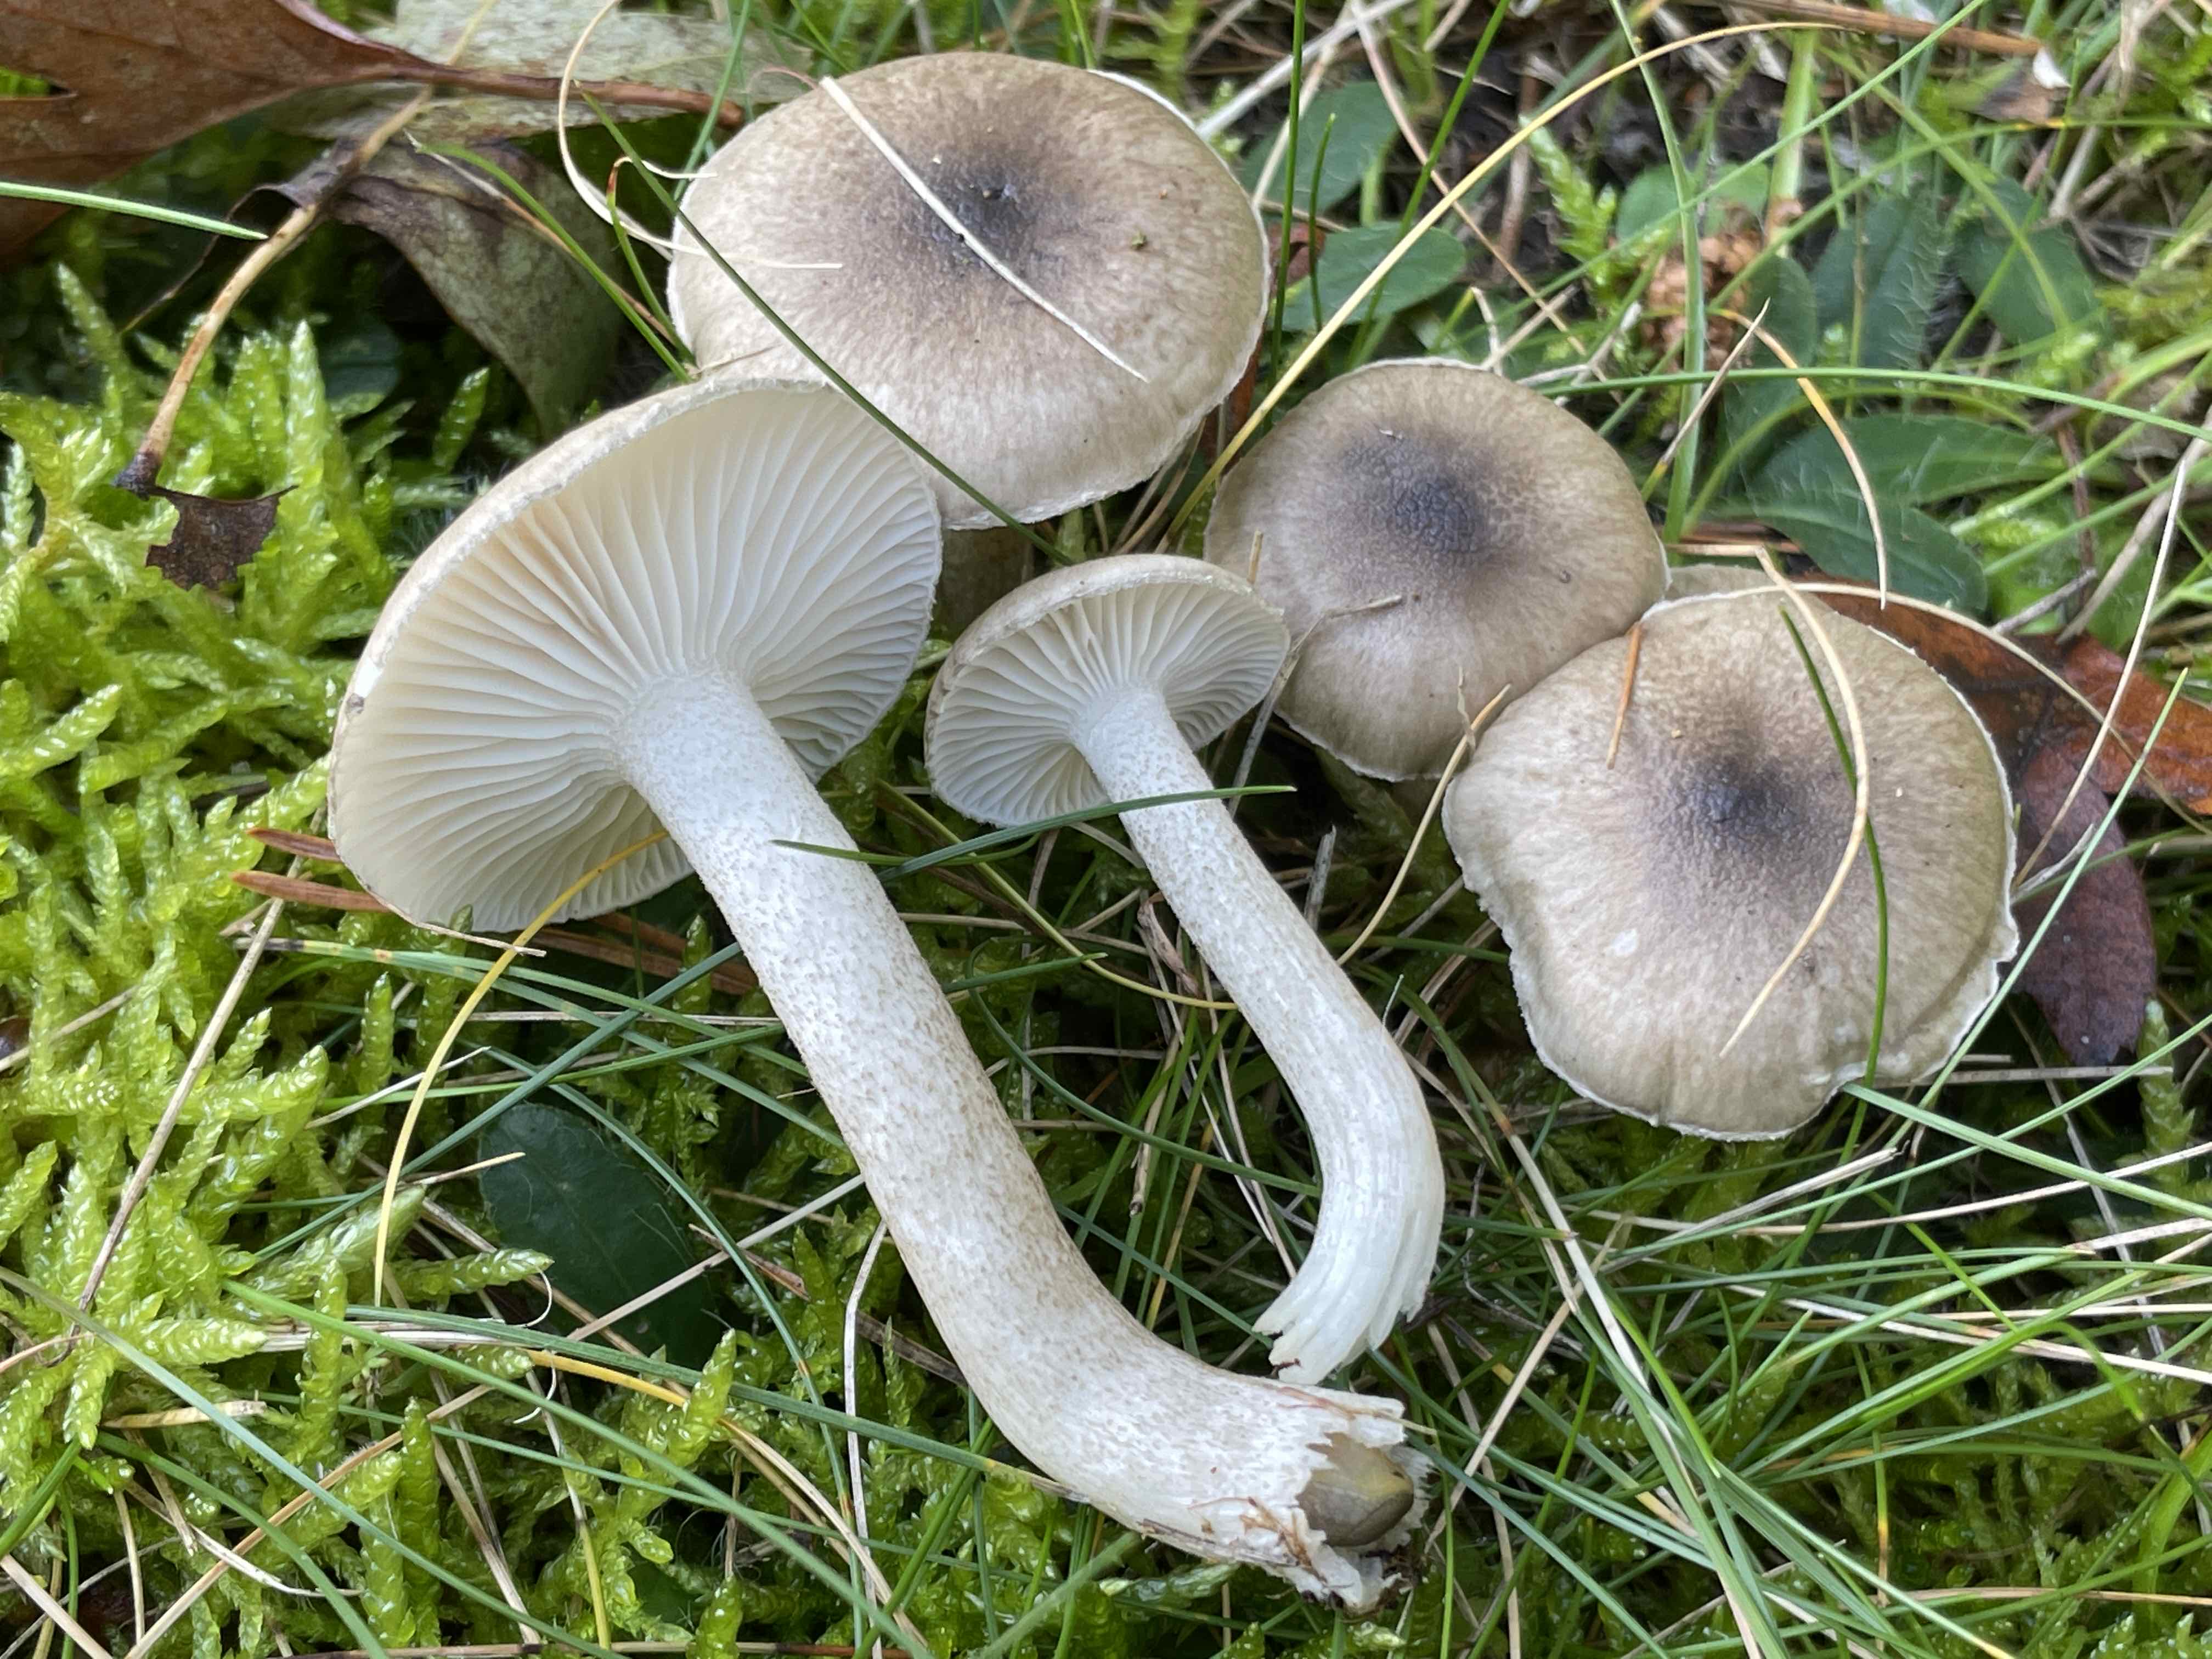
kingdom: Fungi
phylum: Basidiomycota
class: Agaricomycetes
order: Agaricales
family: Hygrophoraceae
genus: Hygrophorus
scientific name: Hygrophorus pustulatus
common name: mørkprikket sneglehat
